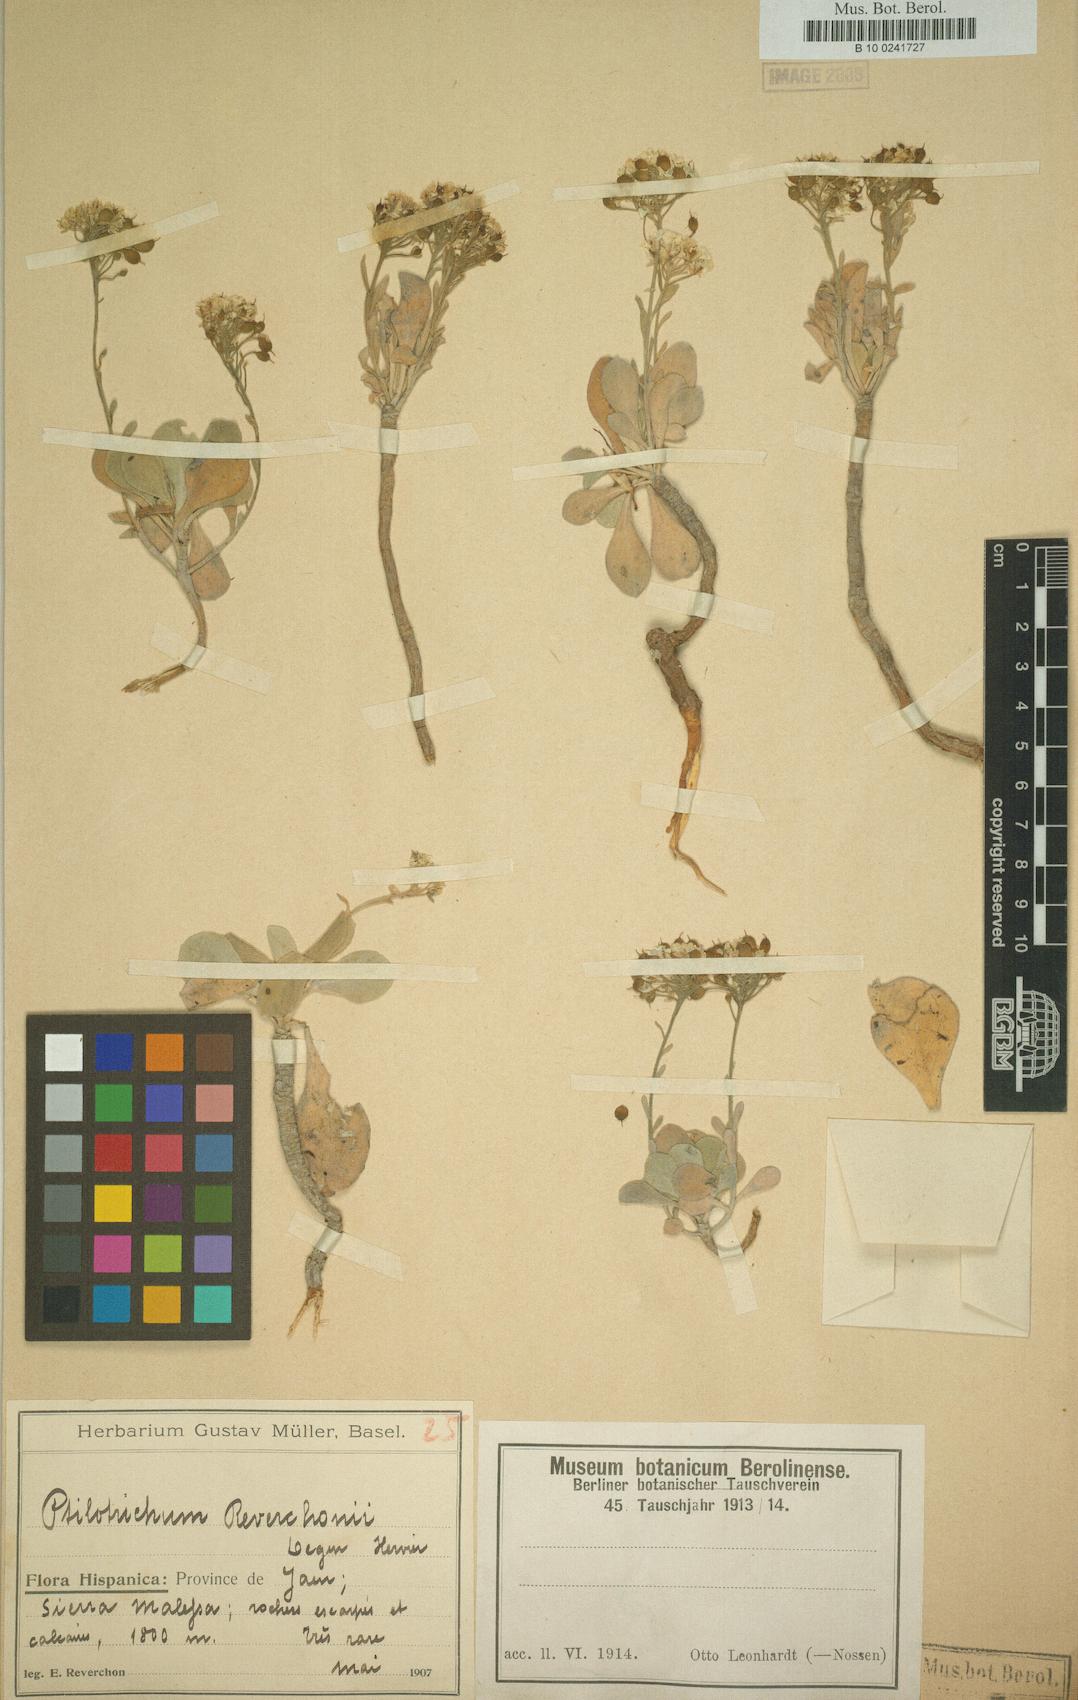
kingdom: Plantae
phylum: Tracheophyta
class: Magnoliopsida
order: Brassicales
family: Brassicaceae
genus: Hormathophylla
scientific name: Hormathophylla reverchonii
